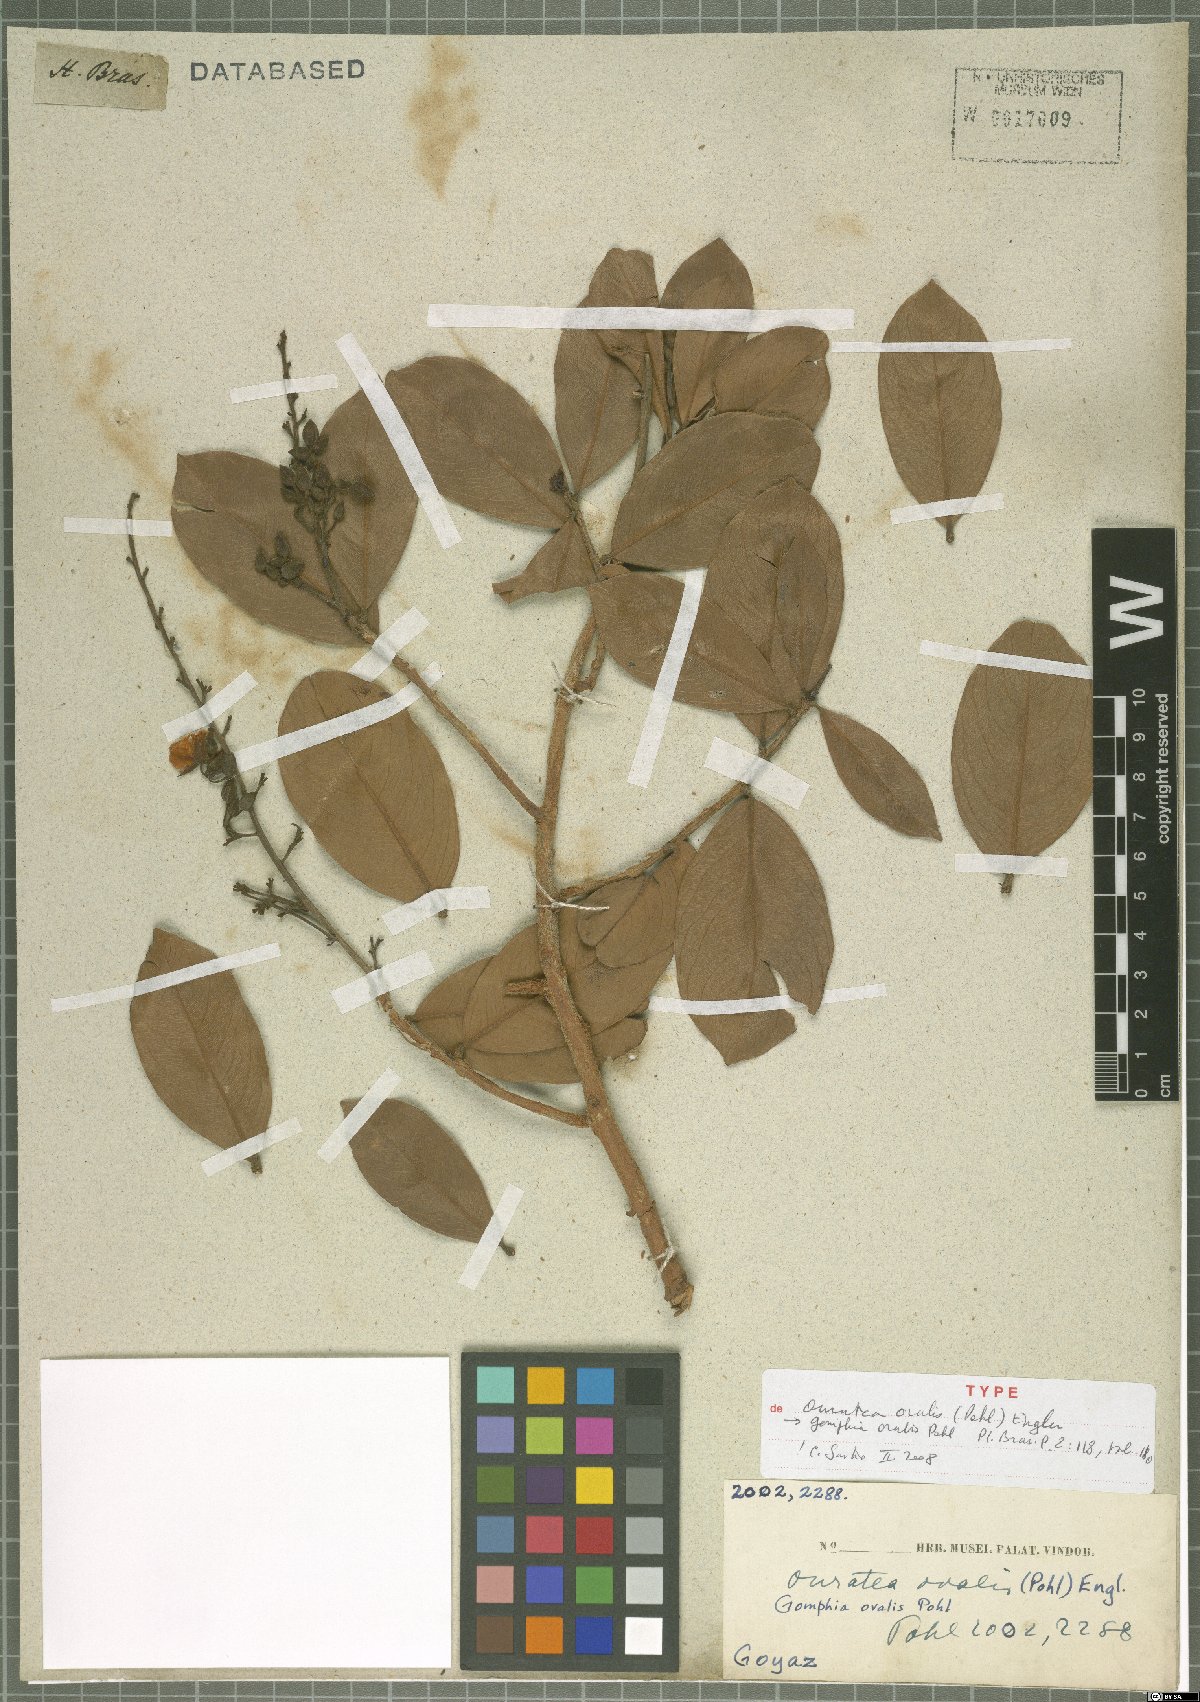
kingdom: Plantae
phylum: Tracheophyta
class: Magnoliopsida
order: Malpighiales
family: Ochnaceae
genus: Ouratea
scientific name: Ouratea ovalis
